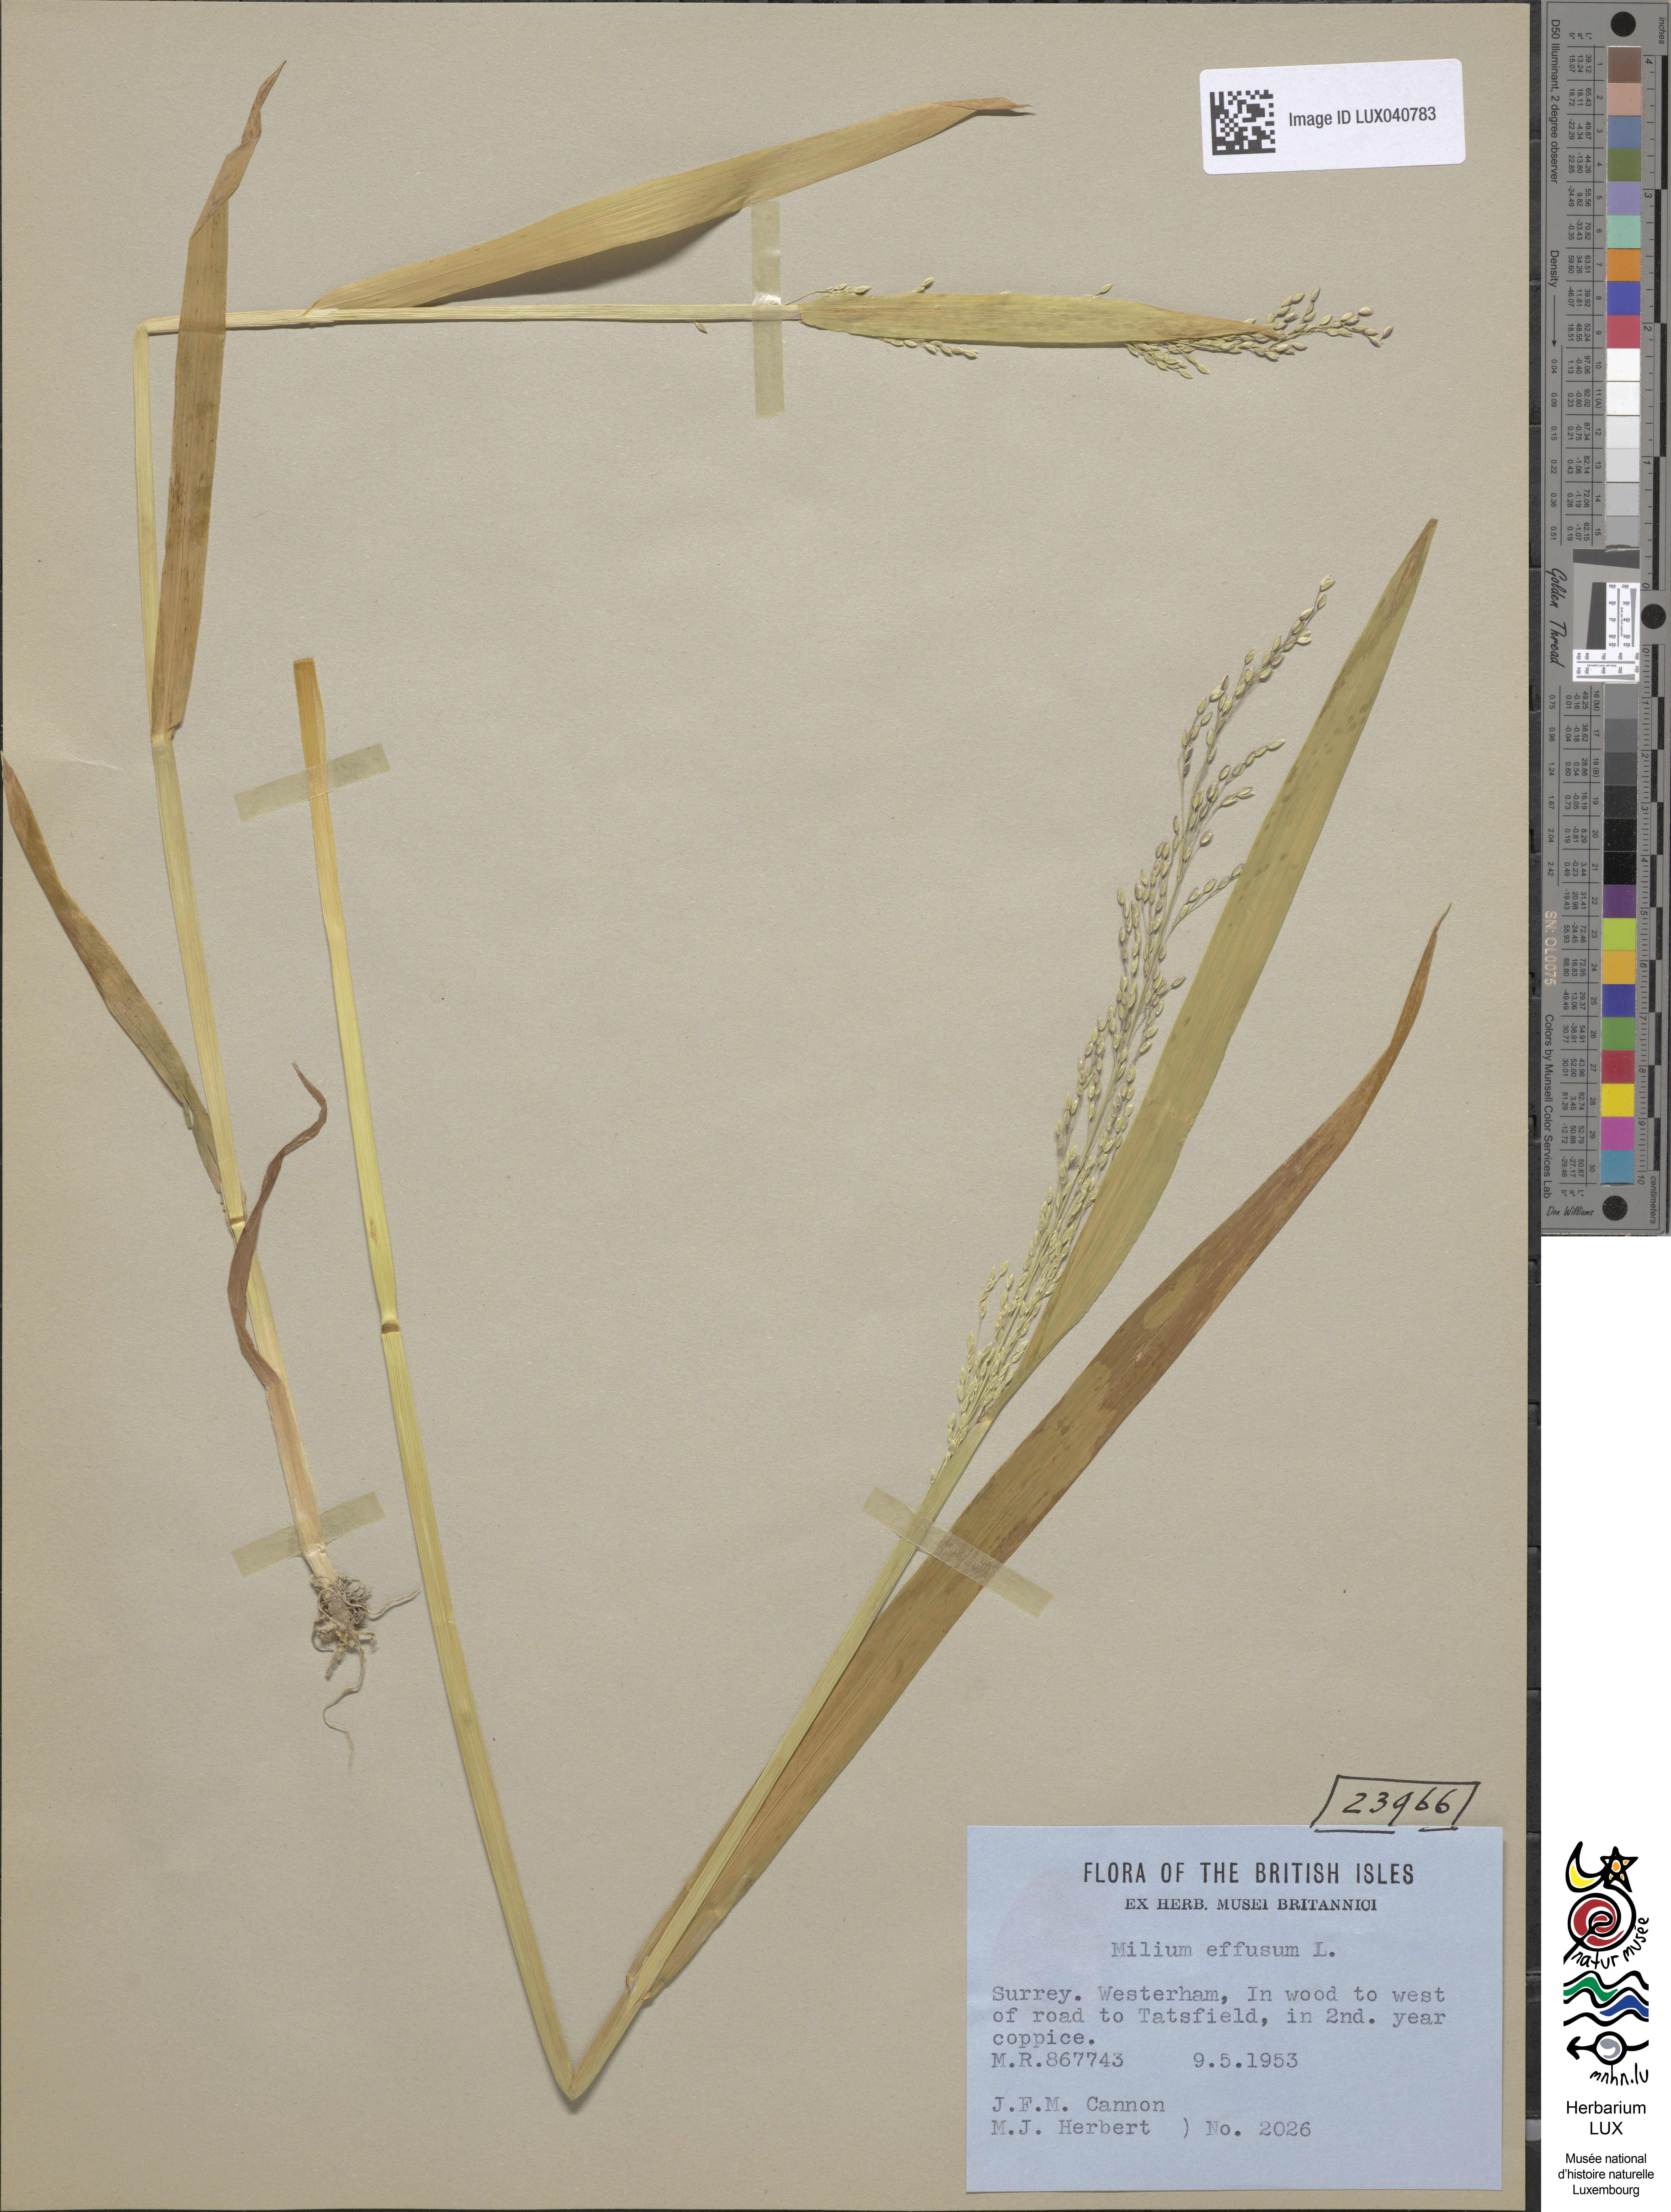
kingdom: Plantae
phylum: Tracheophyta
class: Liliopsida
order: Poales
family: Poaceae
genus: Milium
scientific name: Milium effusum
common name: Wood millet
